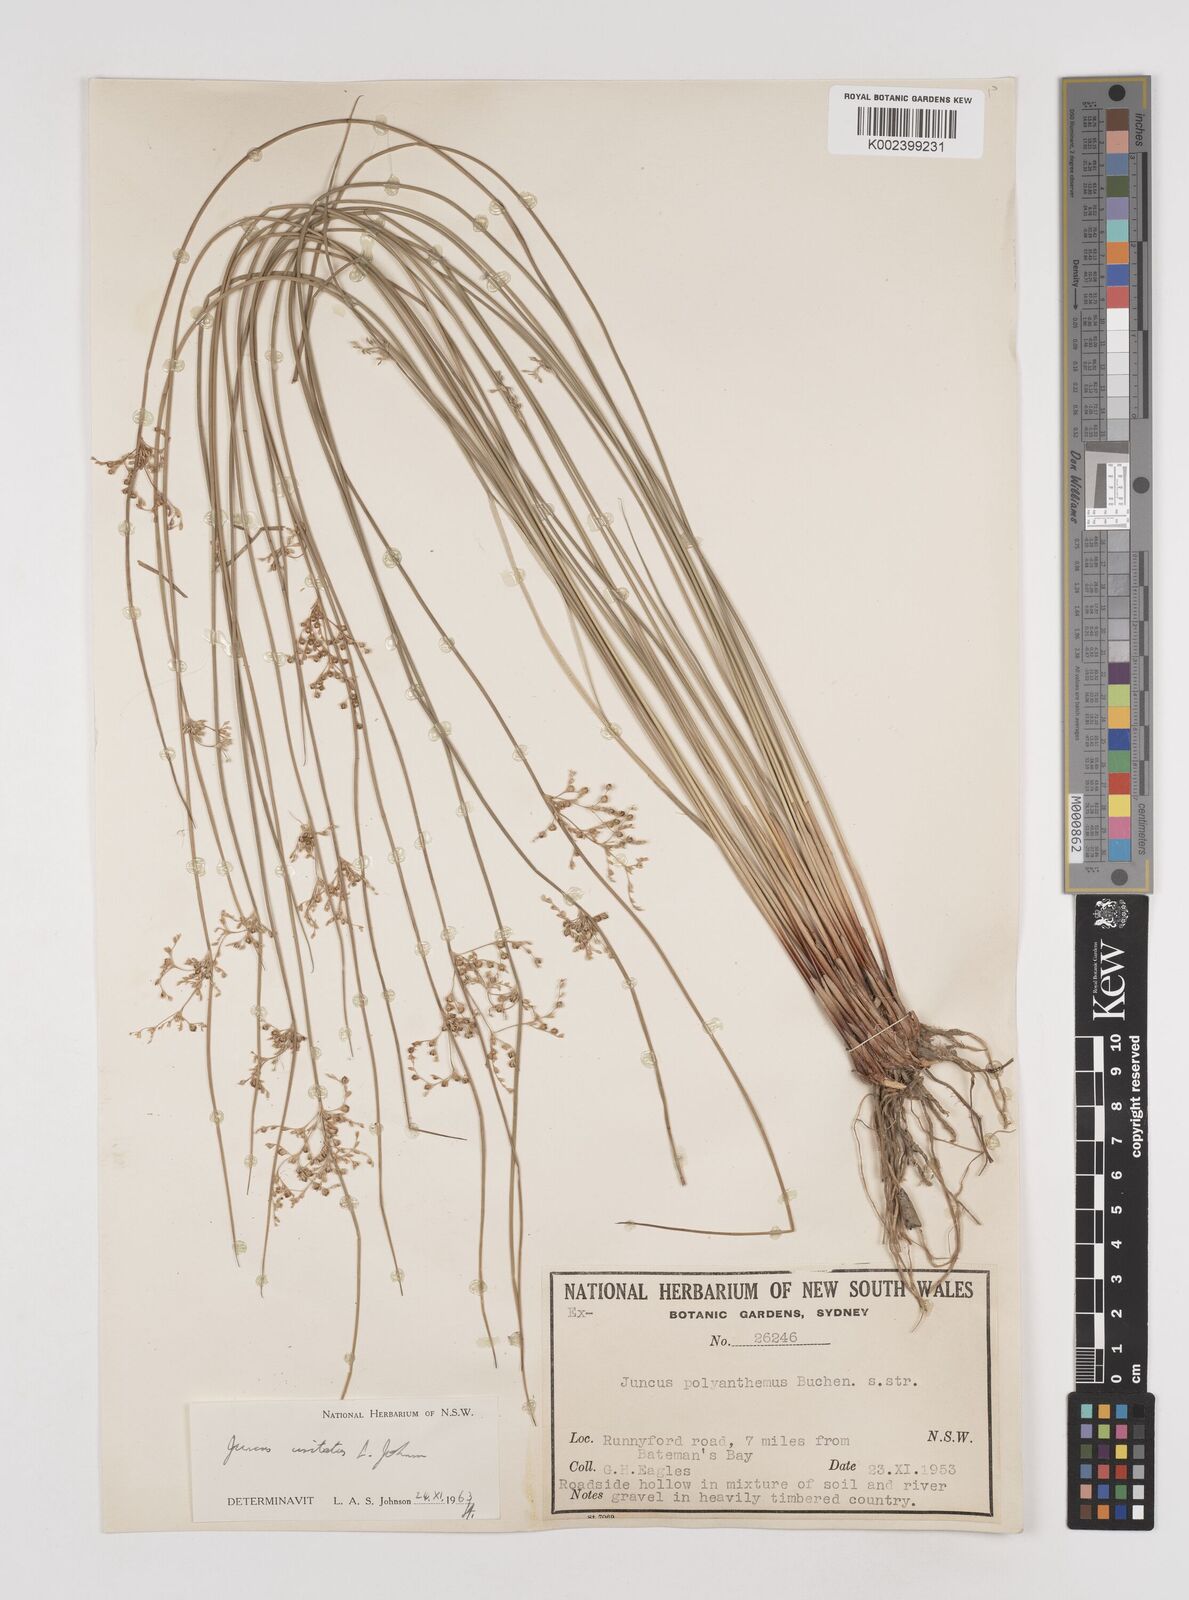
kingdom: Plantae
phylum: Tracheophyta
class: Liliopsida
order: Poales
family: Juncaceae
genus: Juncus
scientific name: Juncus usitatus
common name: Rush
